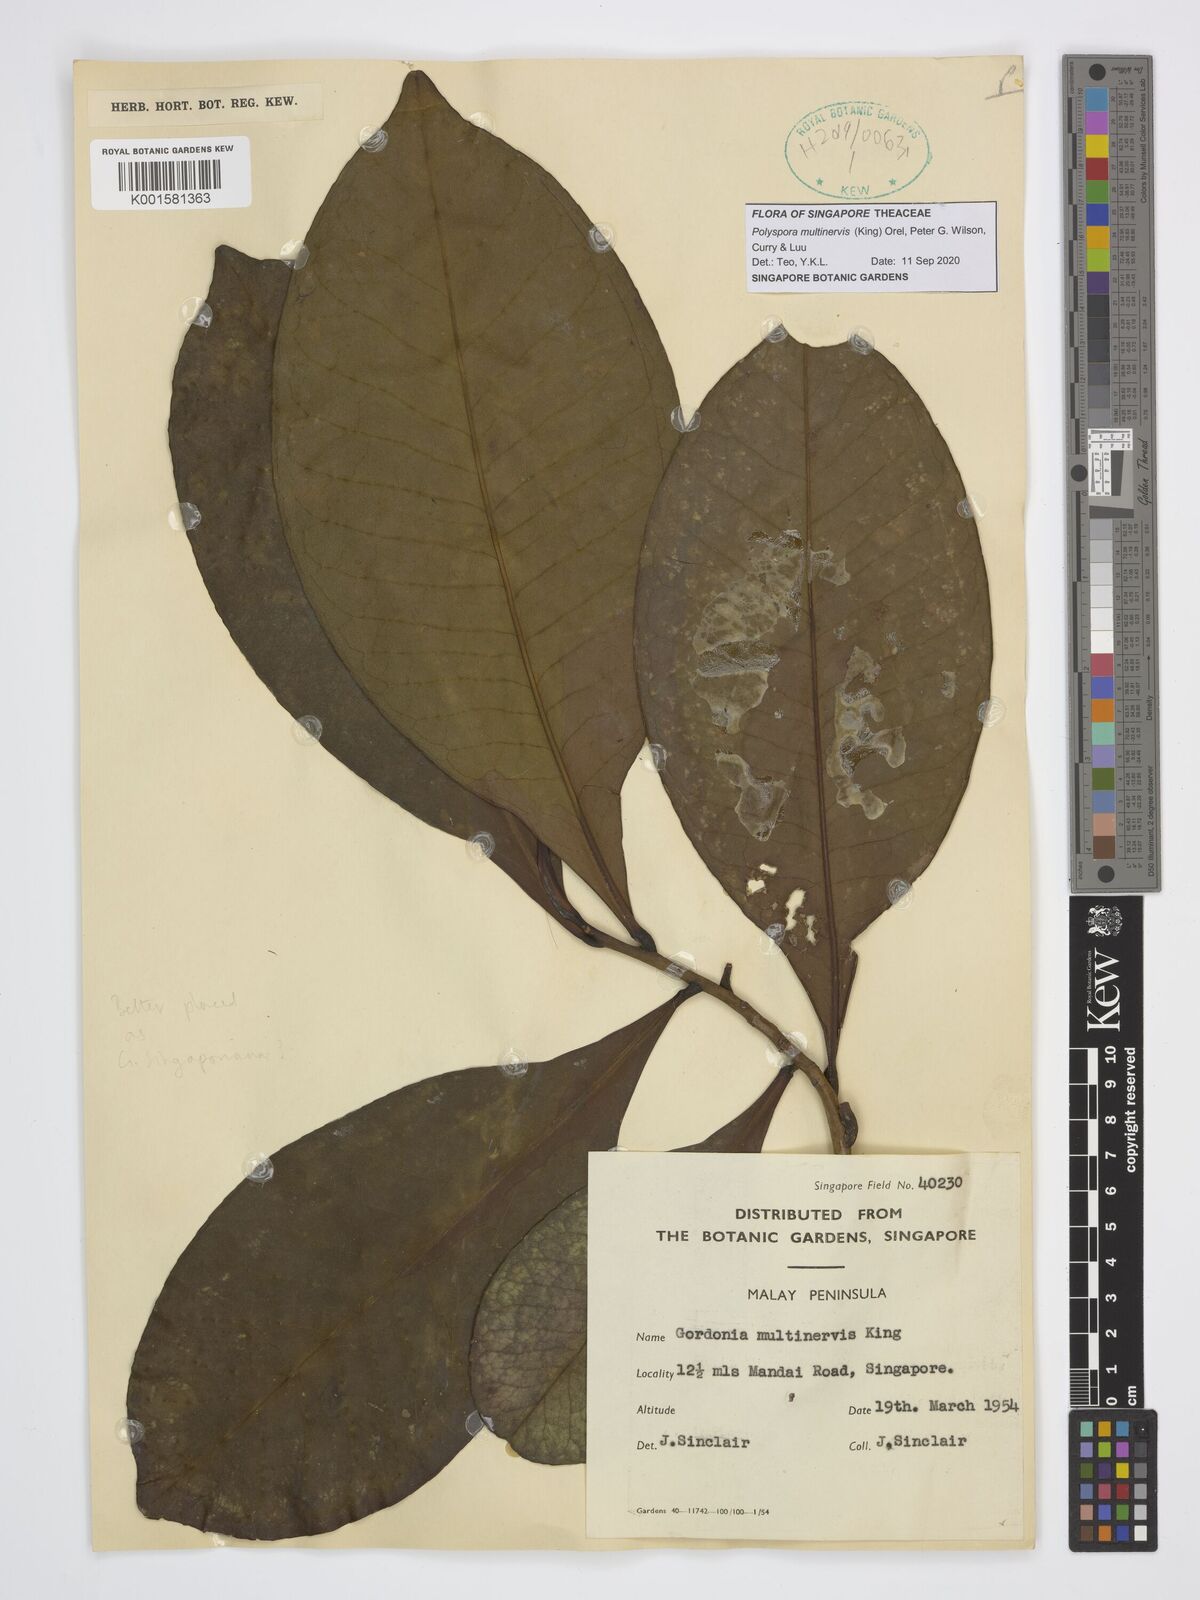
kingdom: Plantae
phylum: Tracheophyta
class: Magnoliopsida
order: Ericales
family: Theaceae
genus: Polyspora
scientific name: Polyspora multinervis
